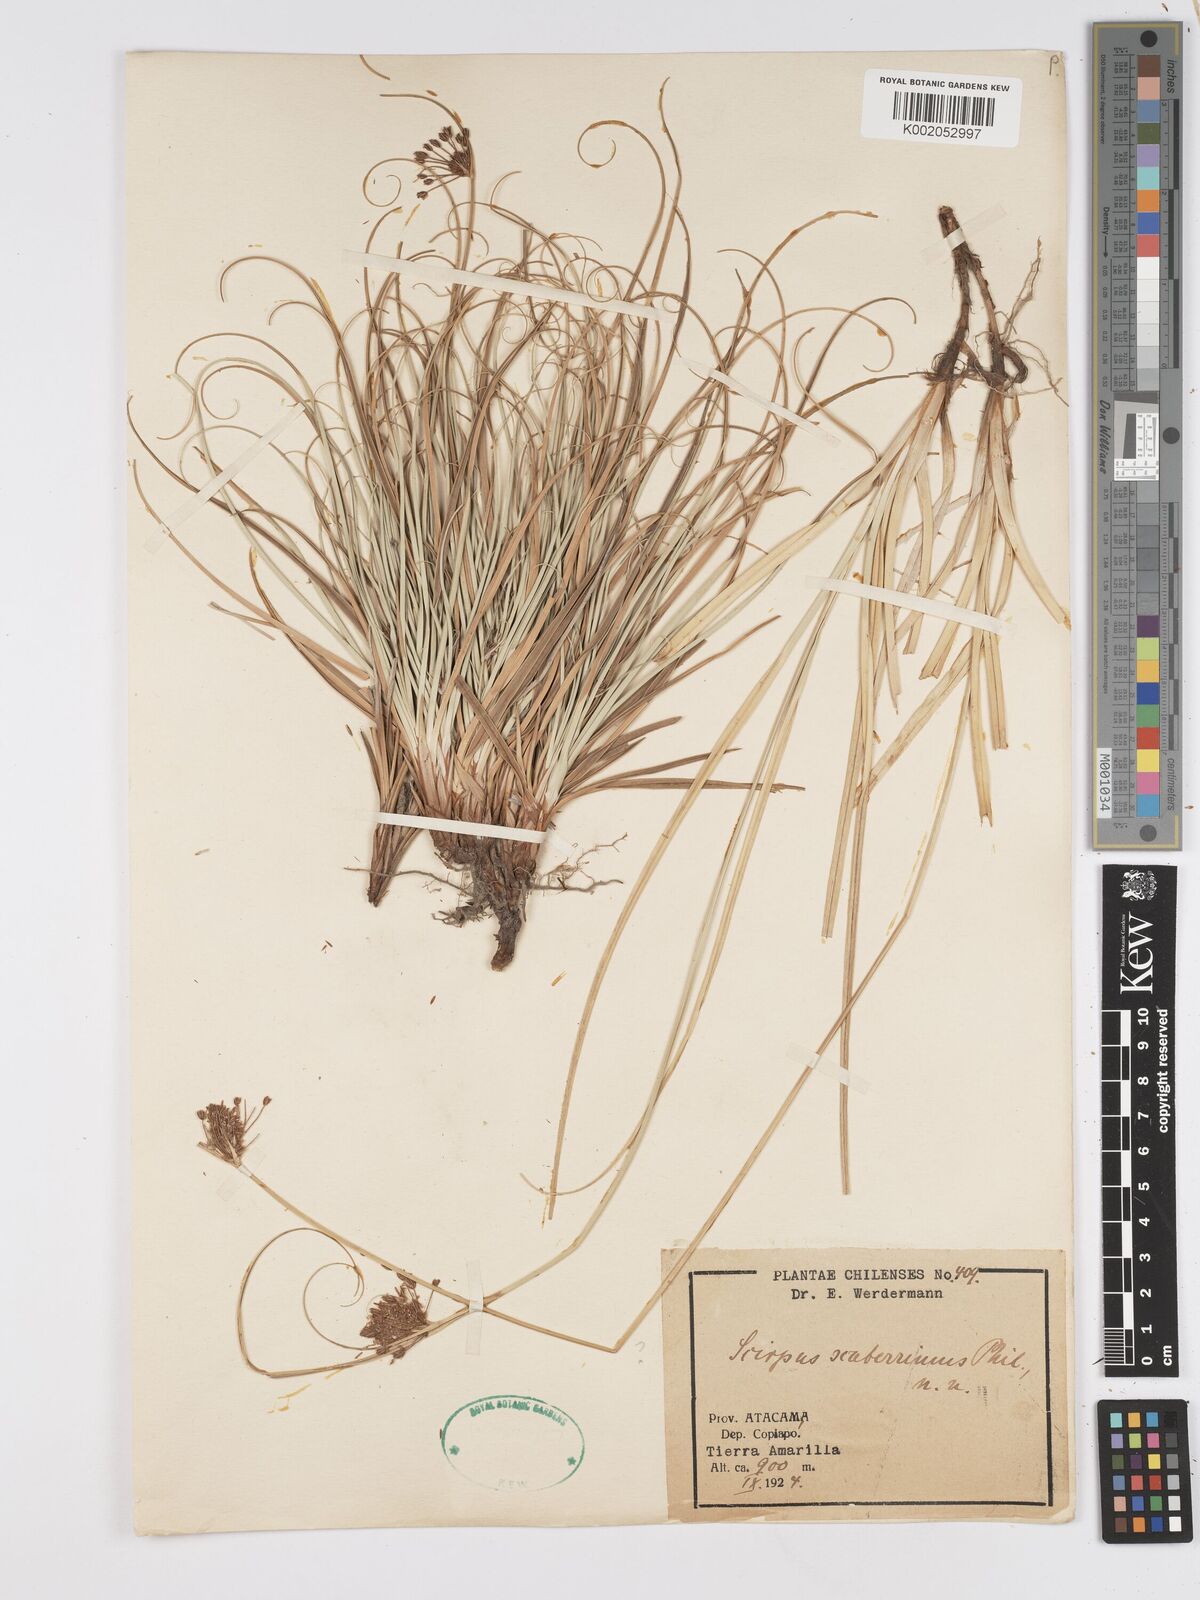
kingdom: Plantae
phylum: Tracheophyta
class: Liliopsida
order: Poales
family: Cyperaceae
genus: Actinoscirpus
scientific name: Actinoscirpus grossus
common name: Giant bur rush
